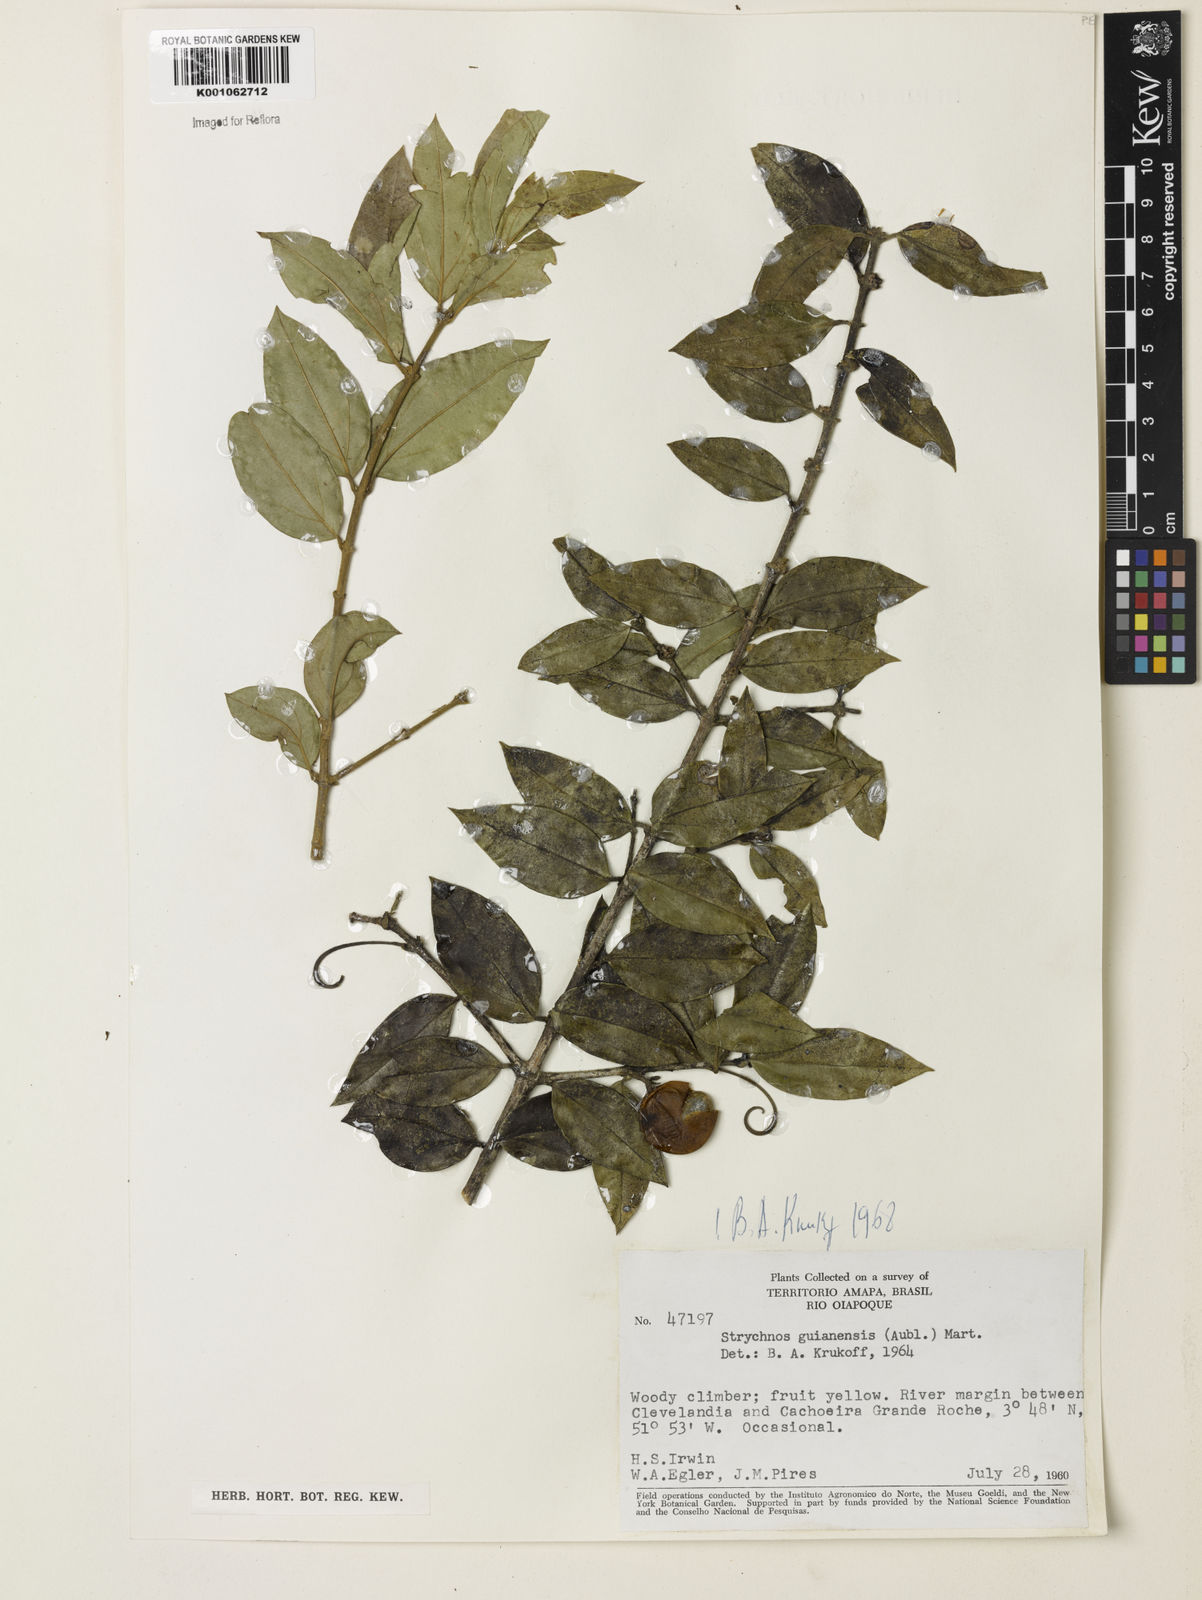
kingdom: Plantae
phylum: Tracheophyta
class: Magnoliopsida
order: Gentianales
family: Loganiaceae
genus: Strychnos
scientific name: Strychnos guianensis
